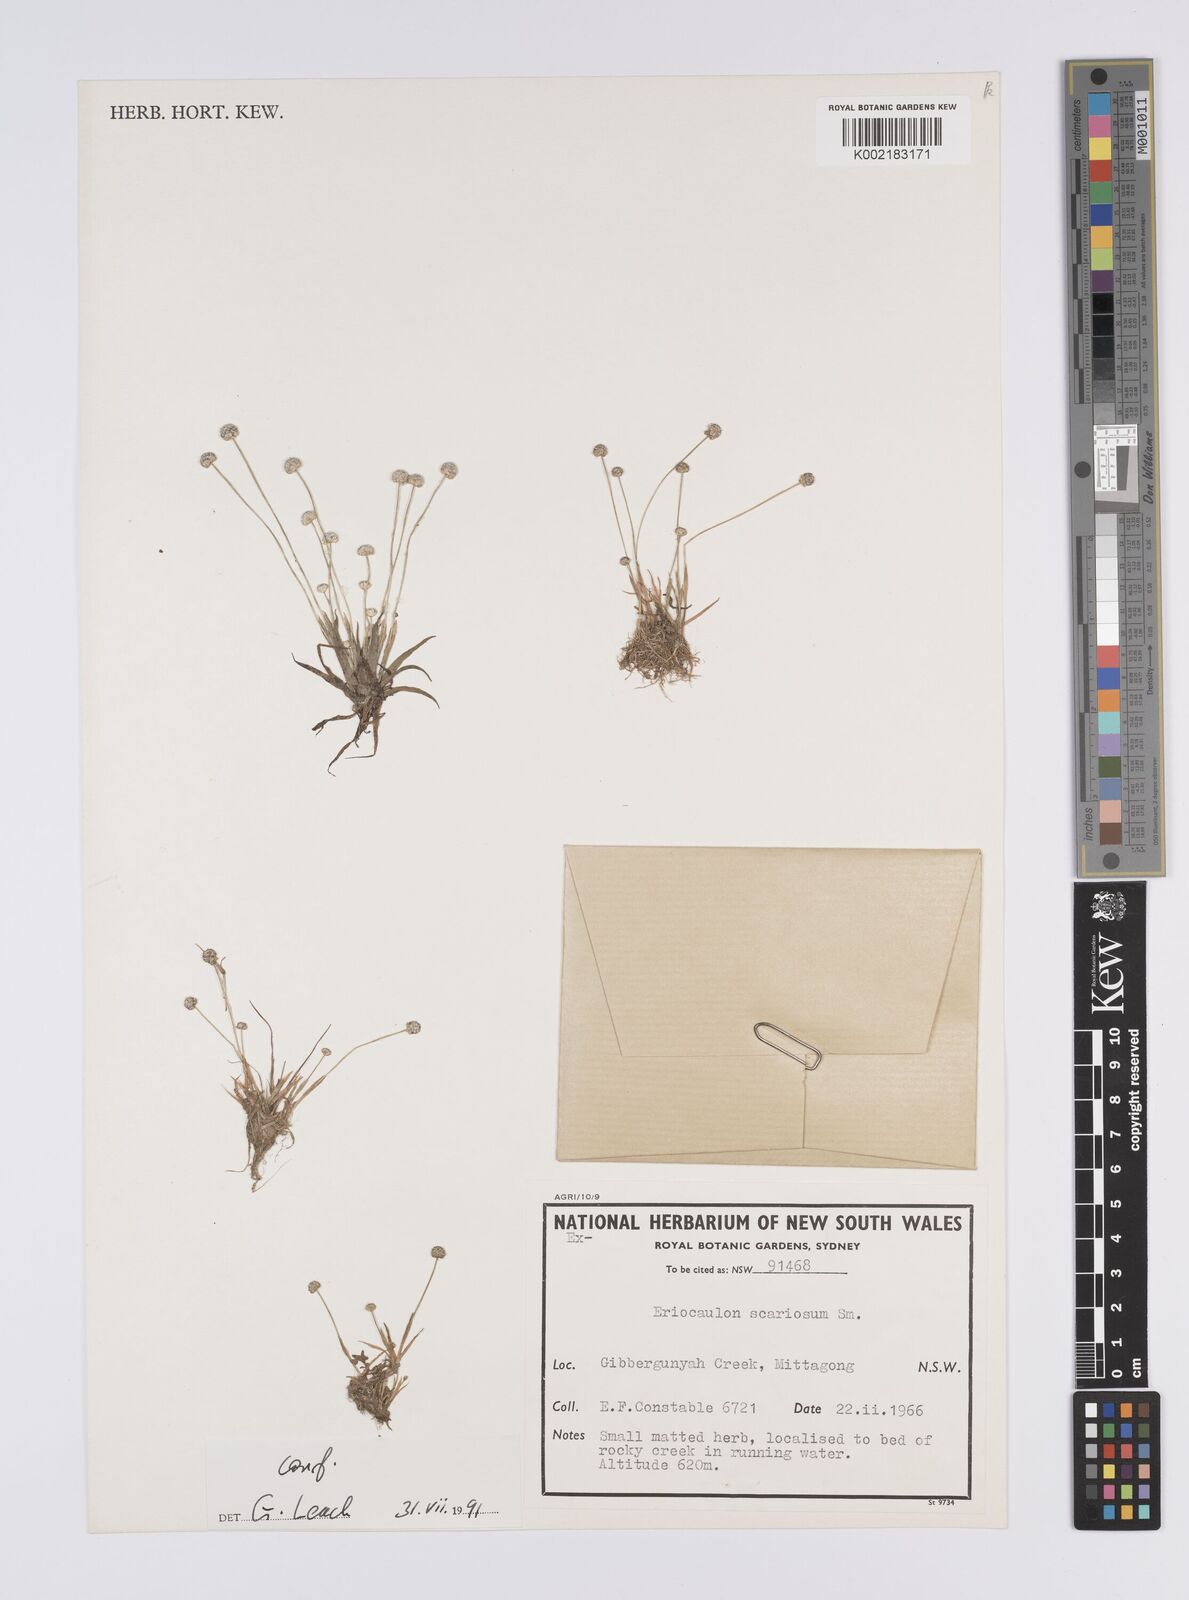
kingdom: Plantae
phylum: Tracheophyta
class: Liliopsida
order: Poales
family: Eriocaulaceae
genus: Eriocaulon
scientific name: Eriocaulon scariosum
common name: Rough pipewort
